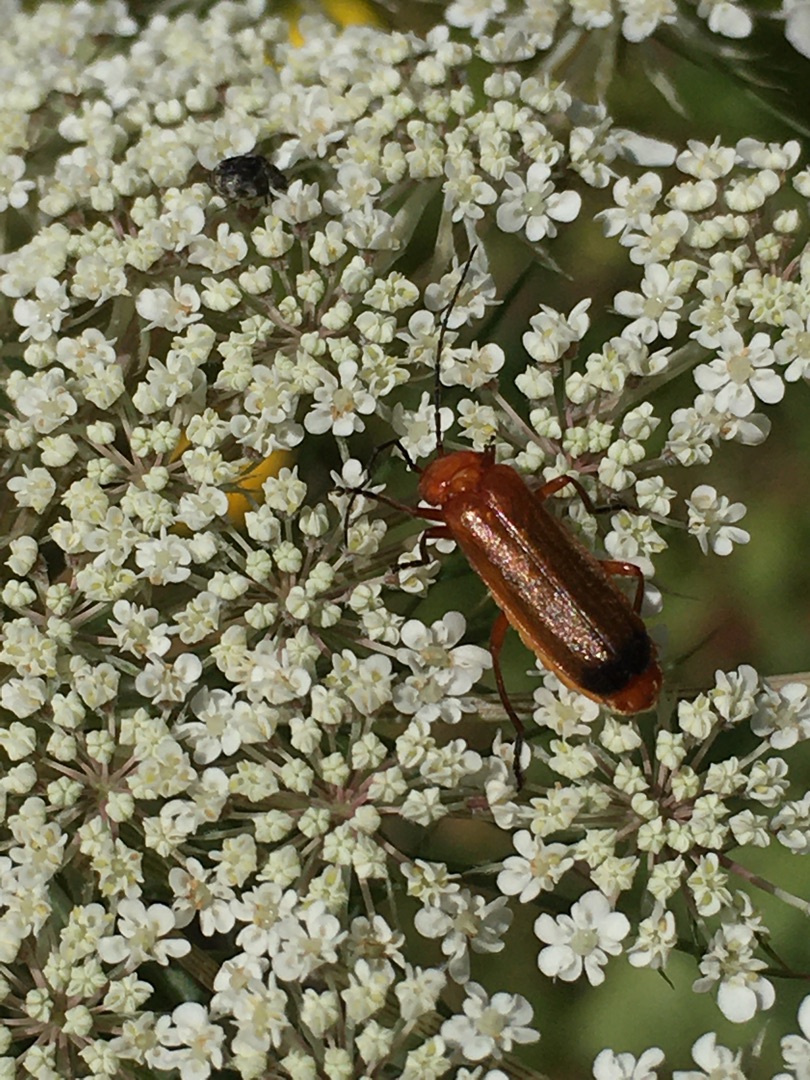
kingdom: Animalia
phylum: Arthropoda
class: Insecta
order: Coleoptera
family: Cantharidae
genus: Rhagonycha
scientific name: Rhagonycha fulva
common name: Præstebille
